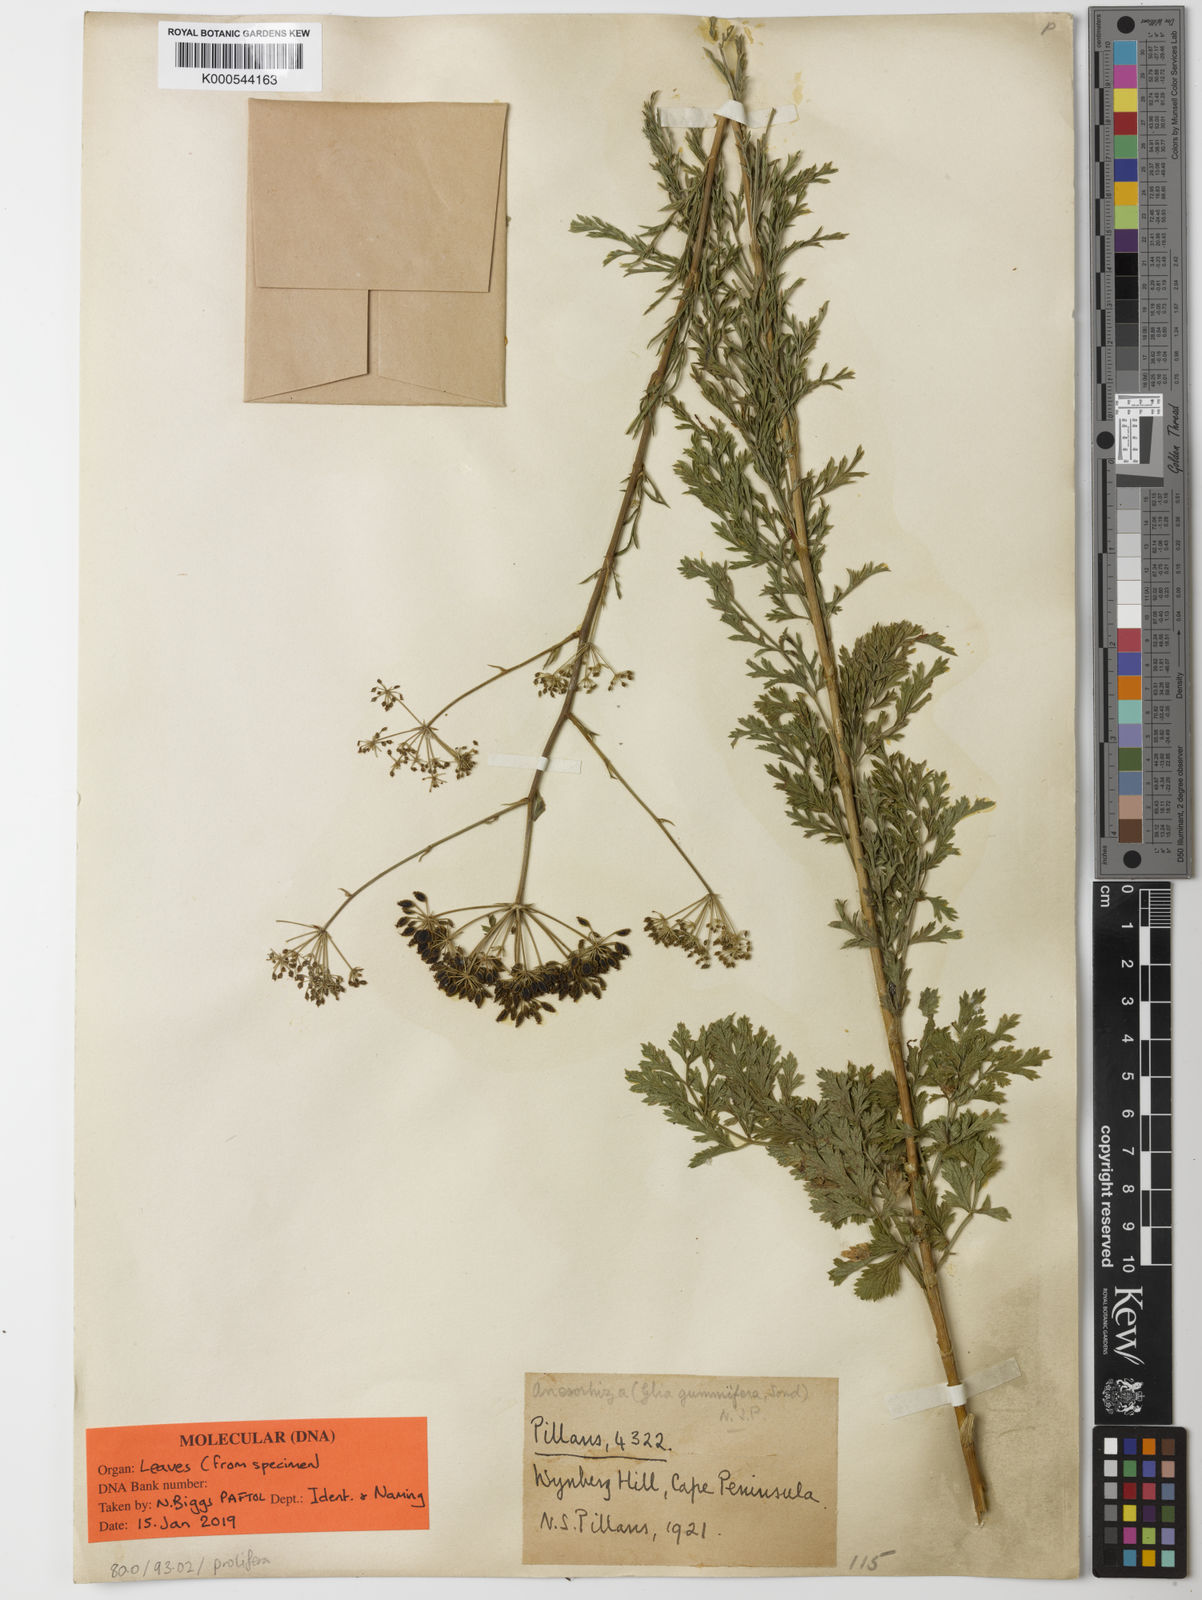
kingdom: Plantae
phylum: Tracheophyta
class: Magnoliopsida
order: Apiales
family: Apiaceae
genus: Glia
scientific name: Glia prolifera
